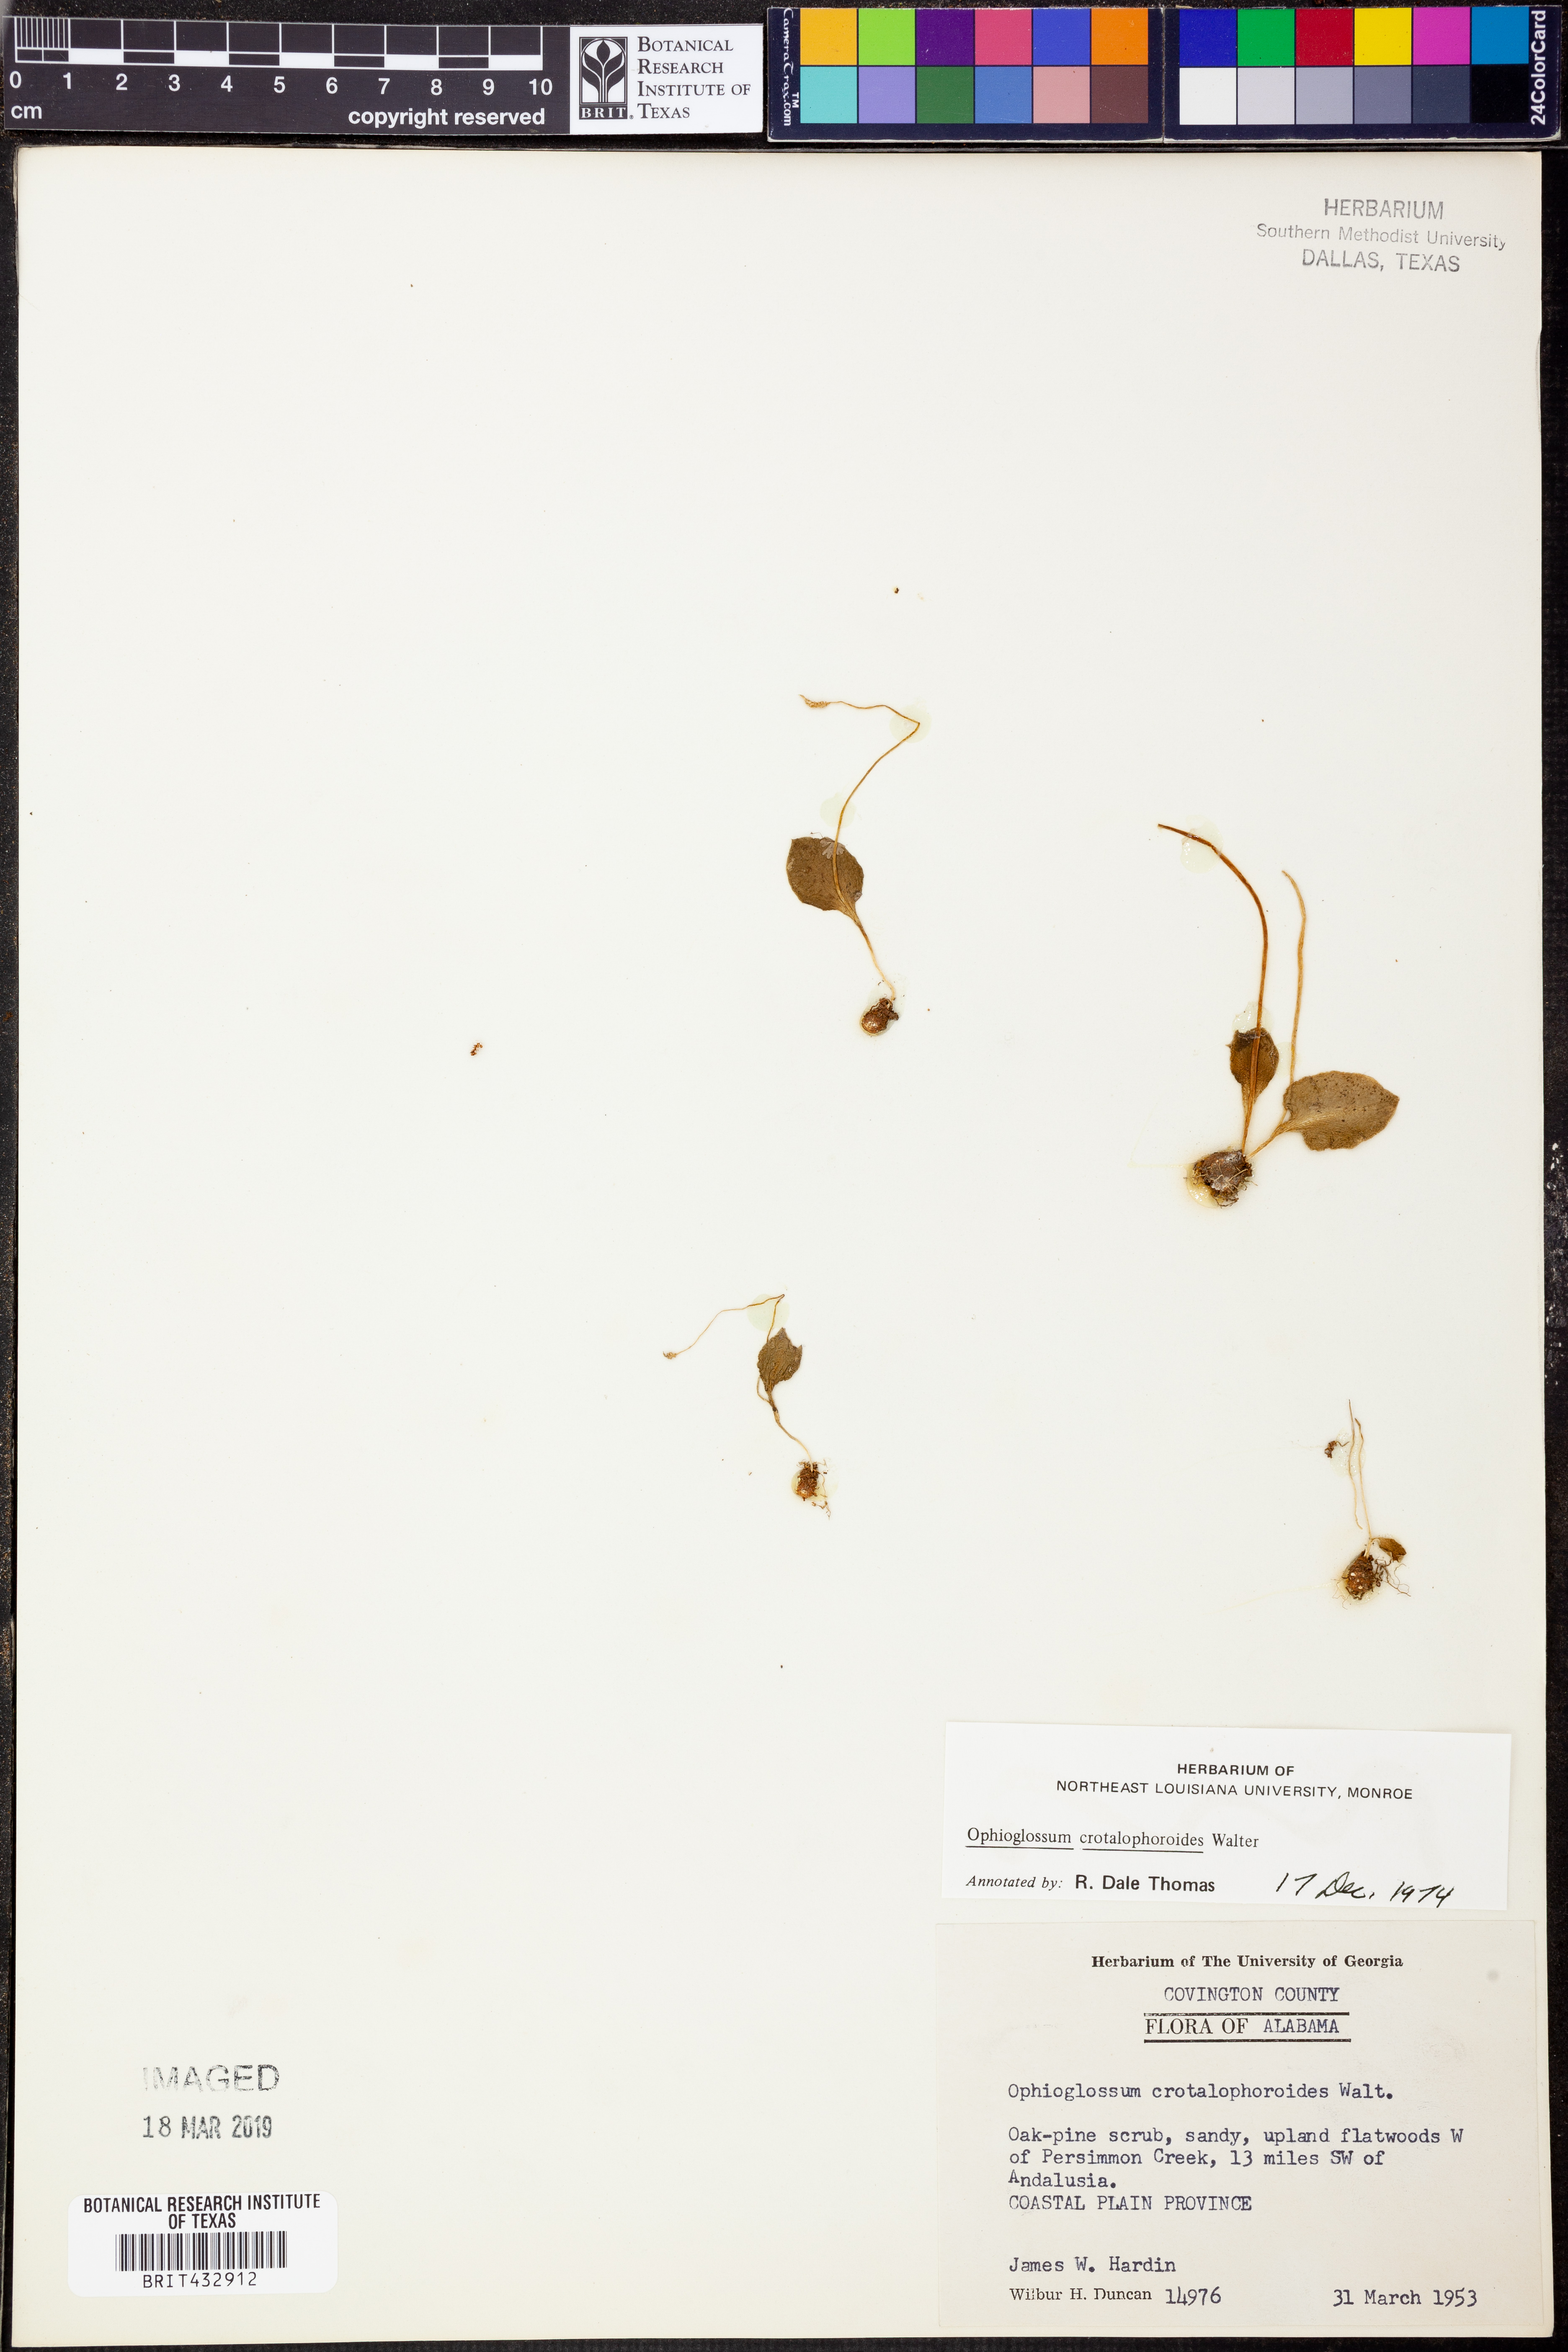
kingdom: Plantae
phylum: Tracheophyta
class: Polypodiopsida
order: Ophioglossales
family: Ophioglossaceae
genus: Ophioglossum
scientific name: Ophioglossum crotalophoroides
